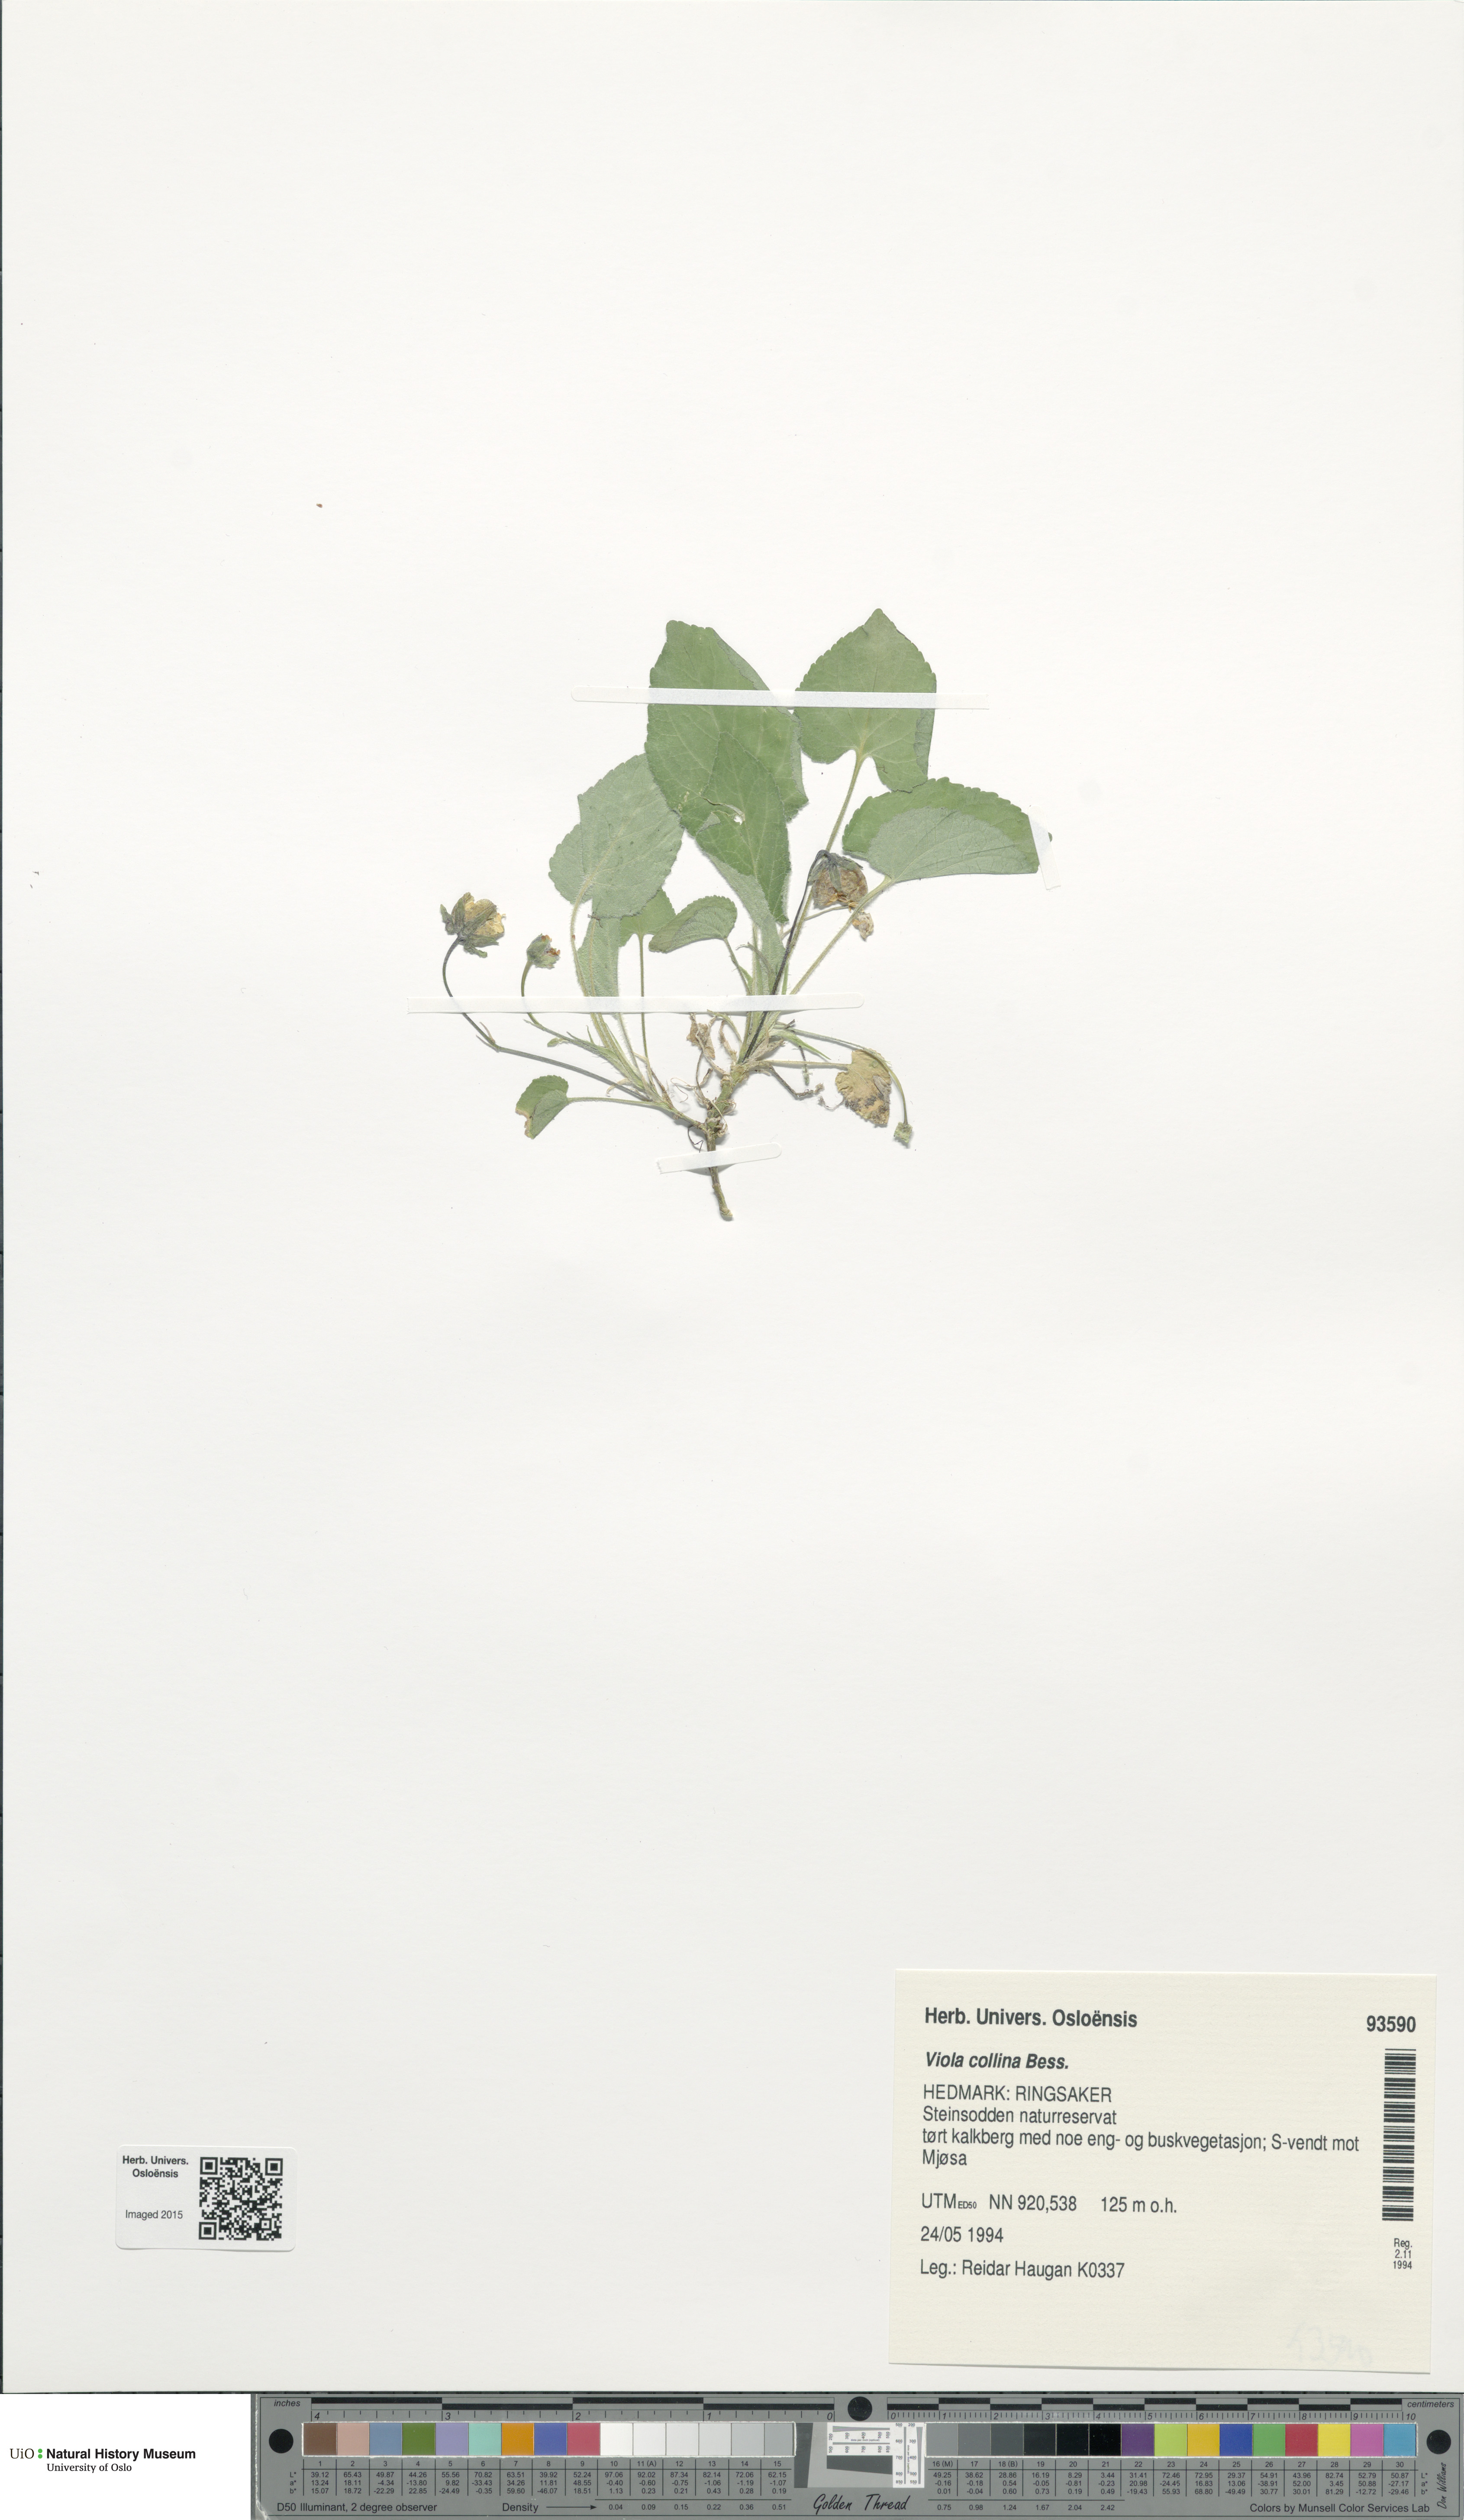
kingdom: Plantae
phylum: Tracheophyta
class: Magnoliopsida
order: Malpighiales
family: Violaceae
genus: Viola
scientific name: Viola collina
